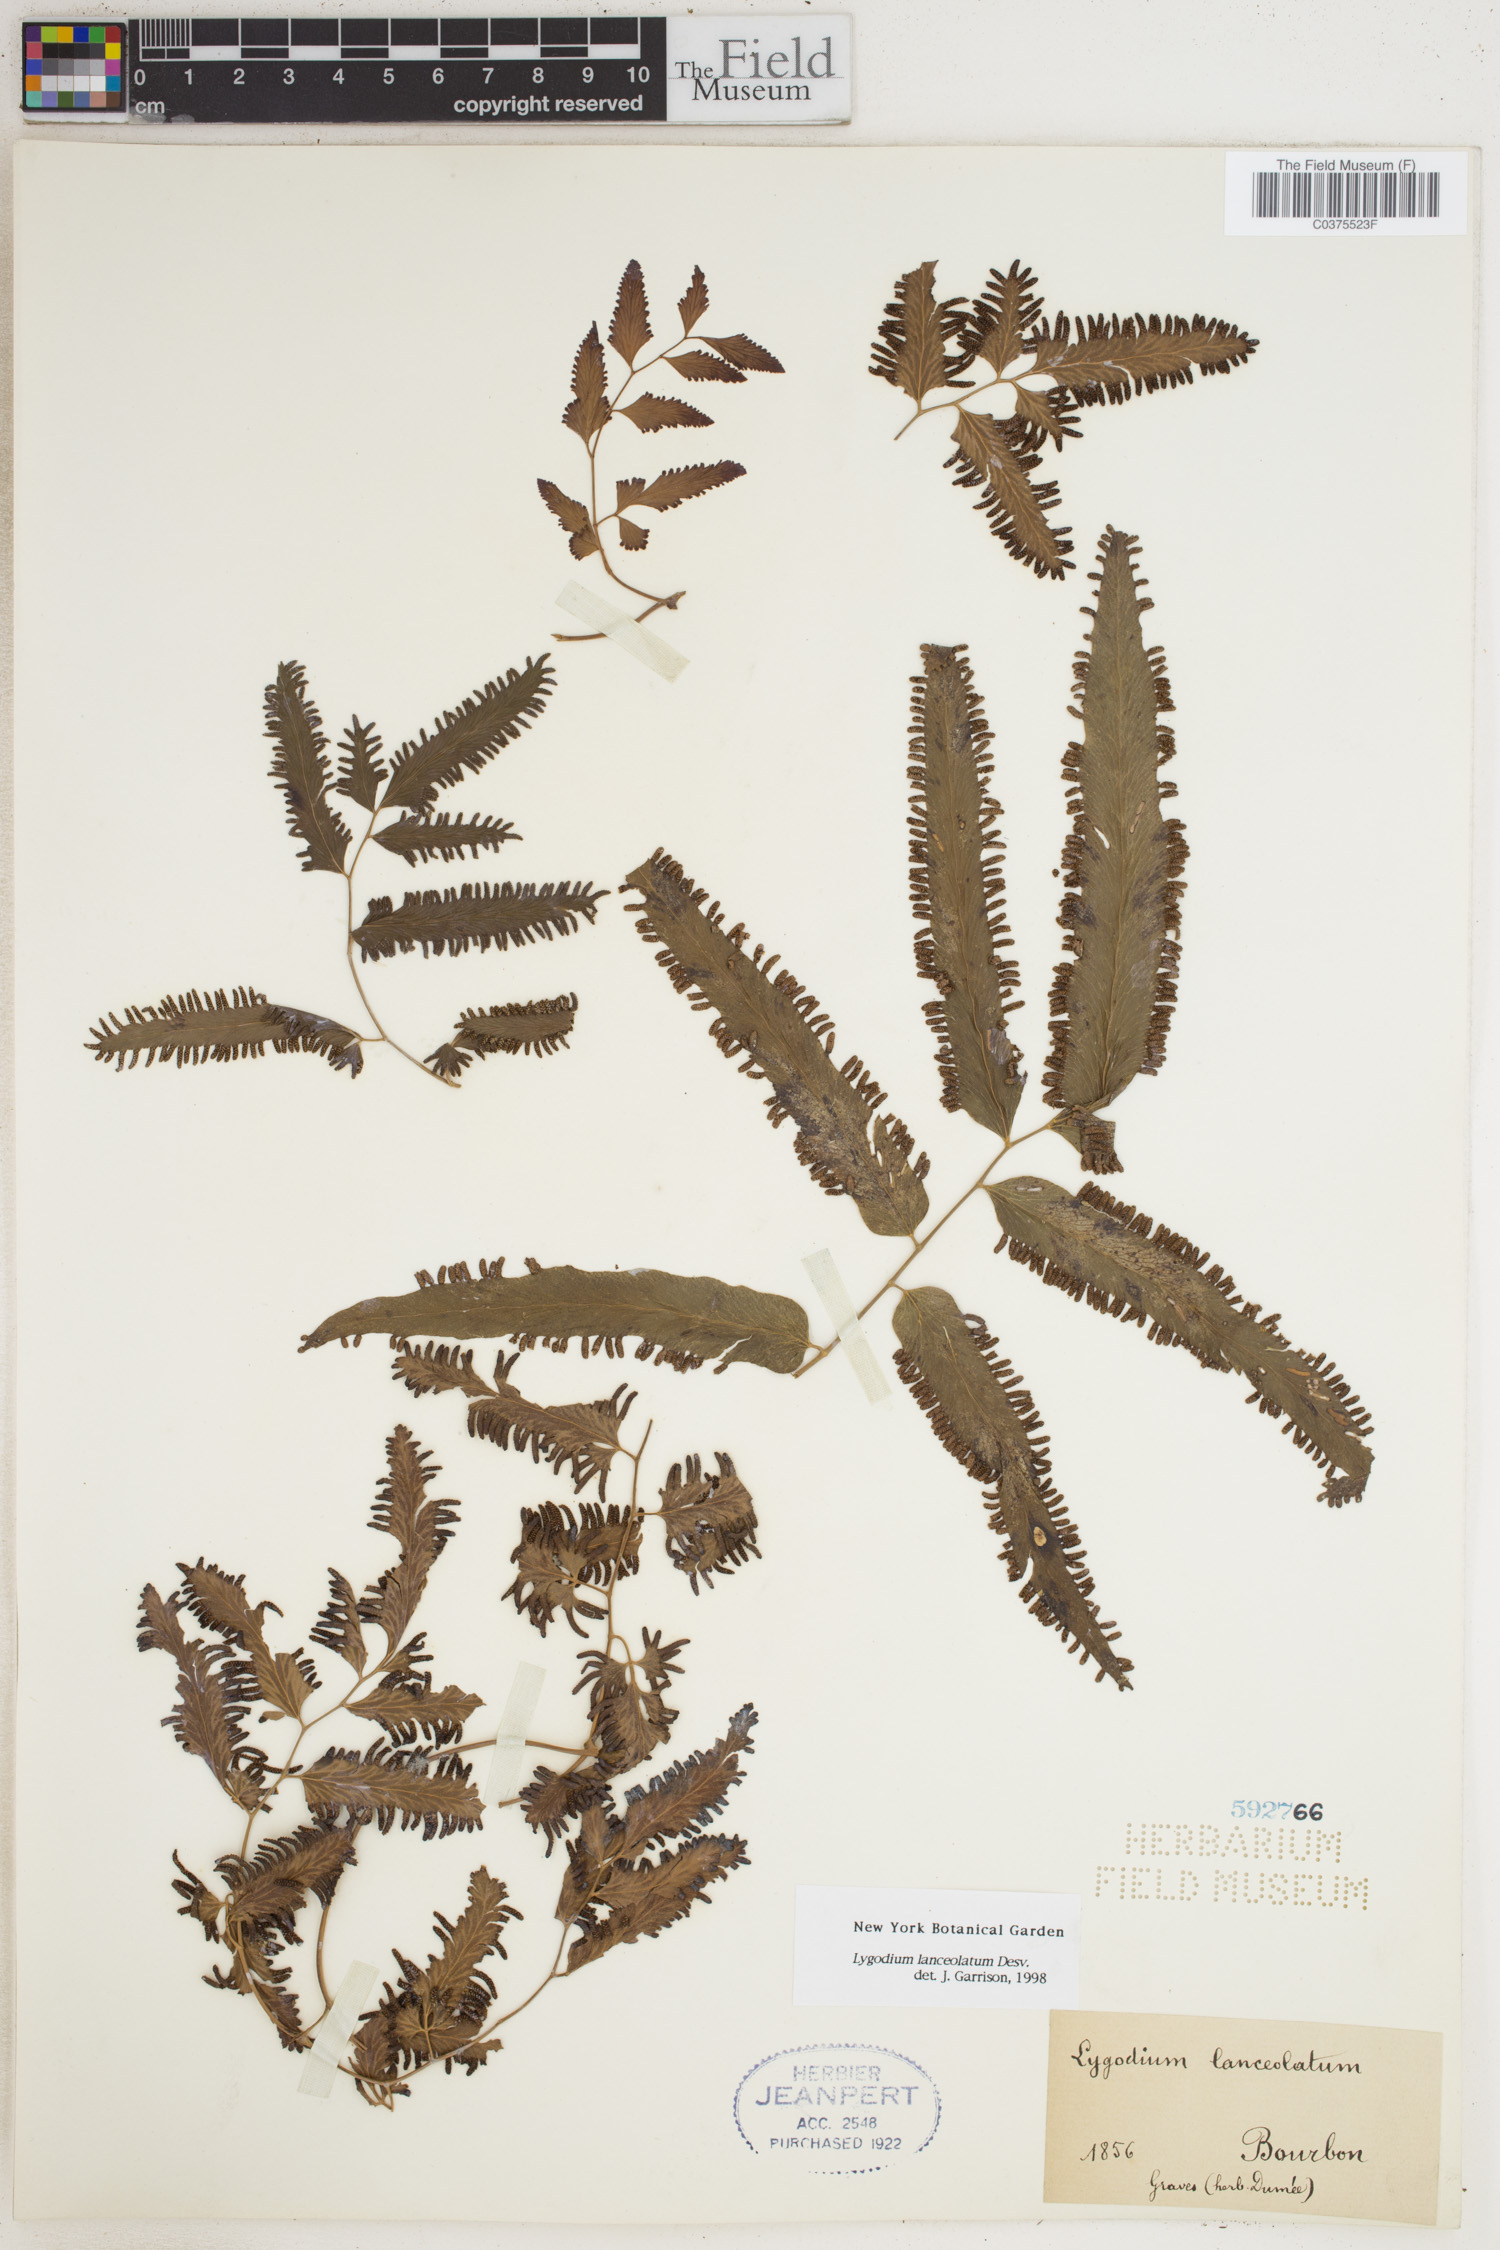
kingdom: Plantae
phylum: Tracheophyta
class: Polypodiopsida
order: Schizaeales
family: Lygodiaceae
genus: Lygodium
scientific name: Lygodium lanceolatum
